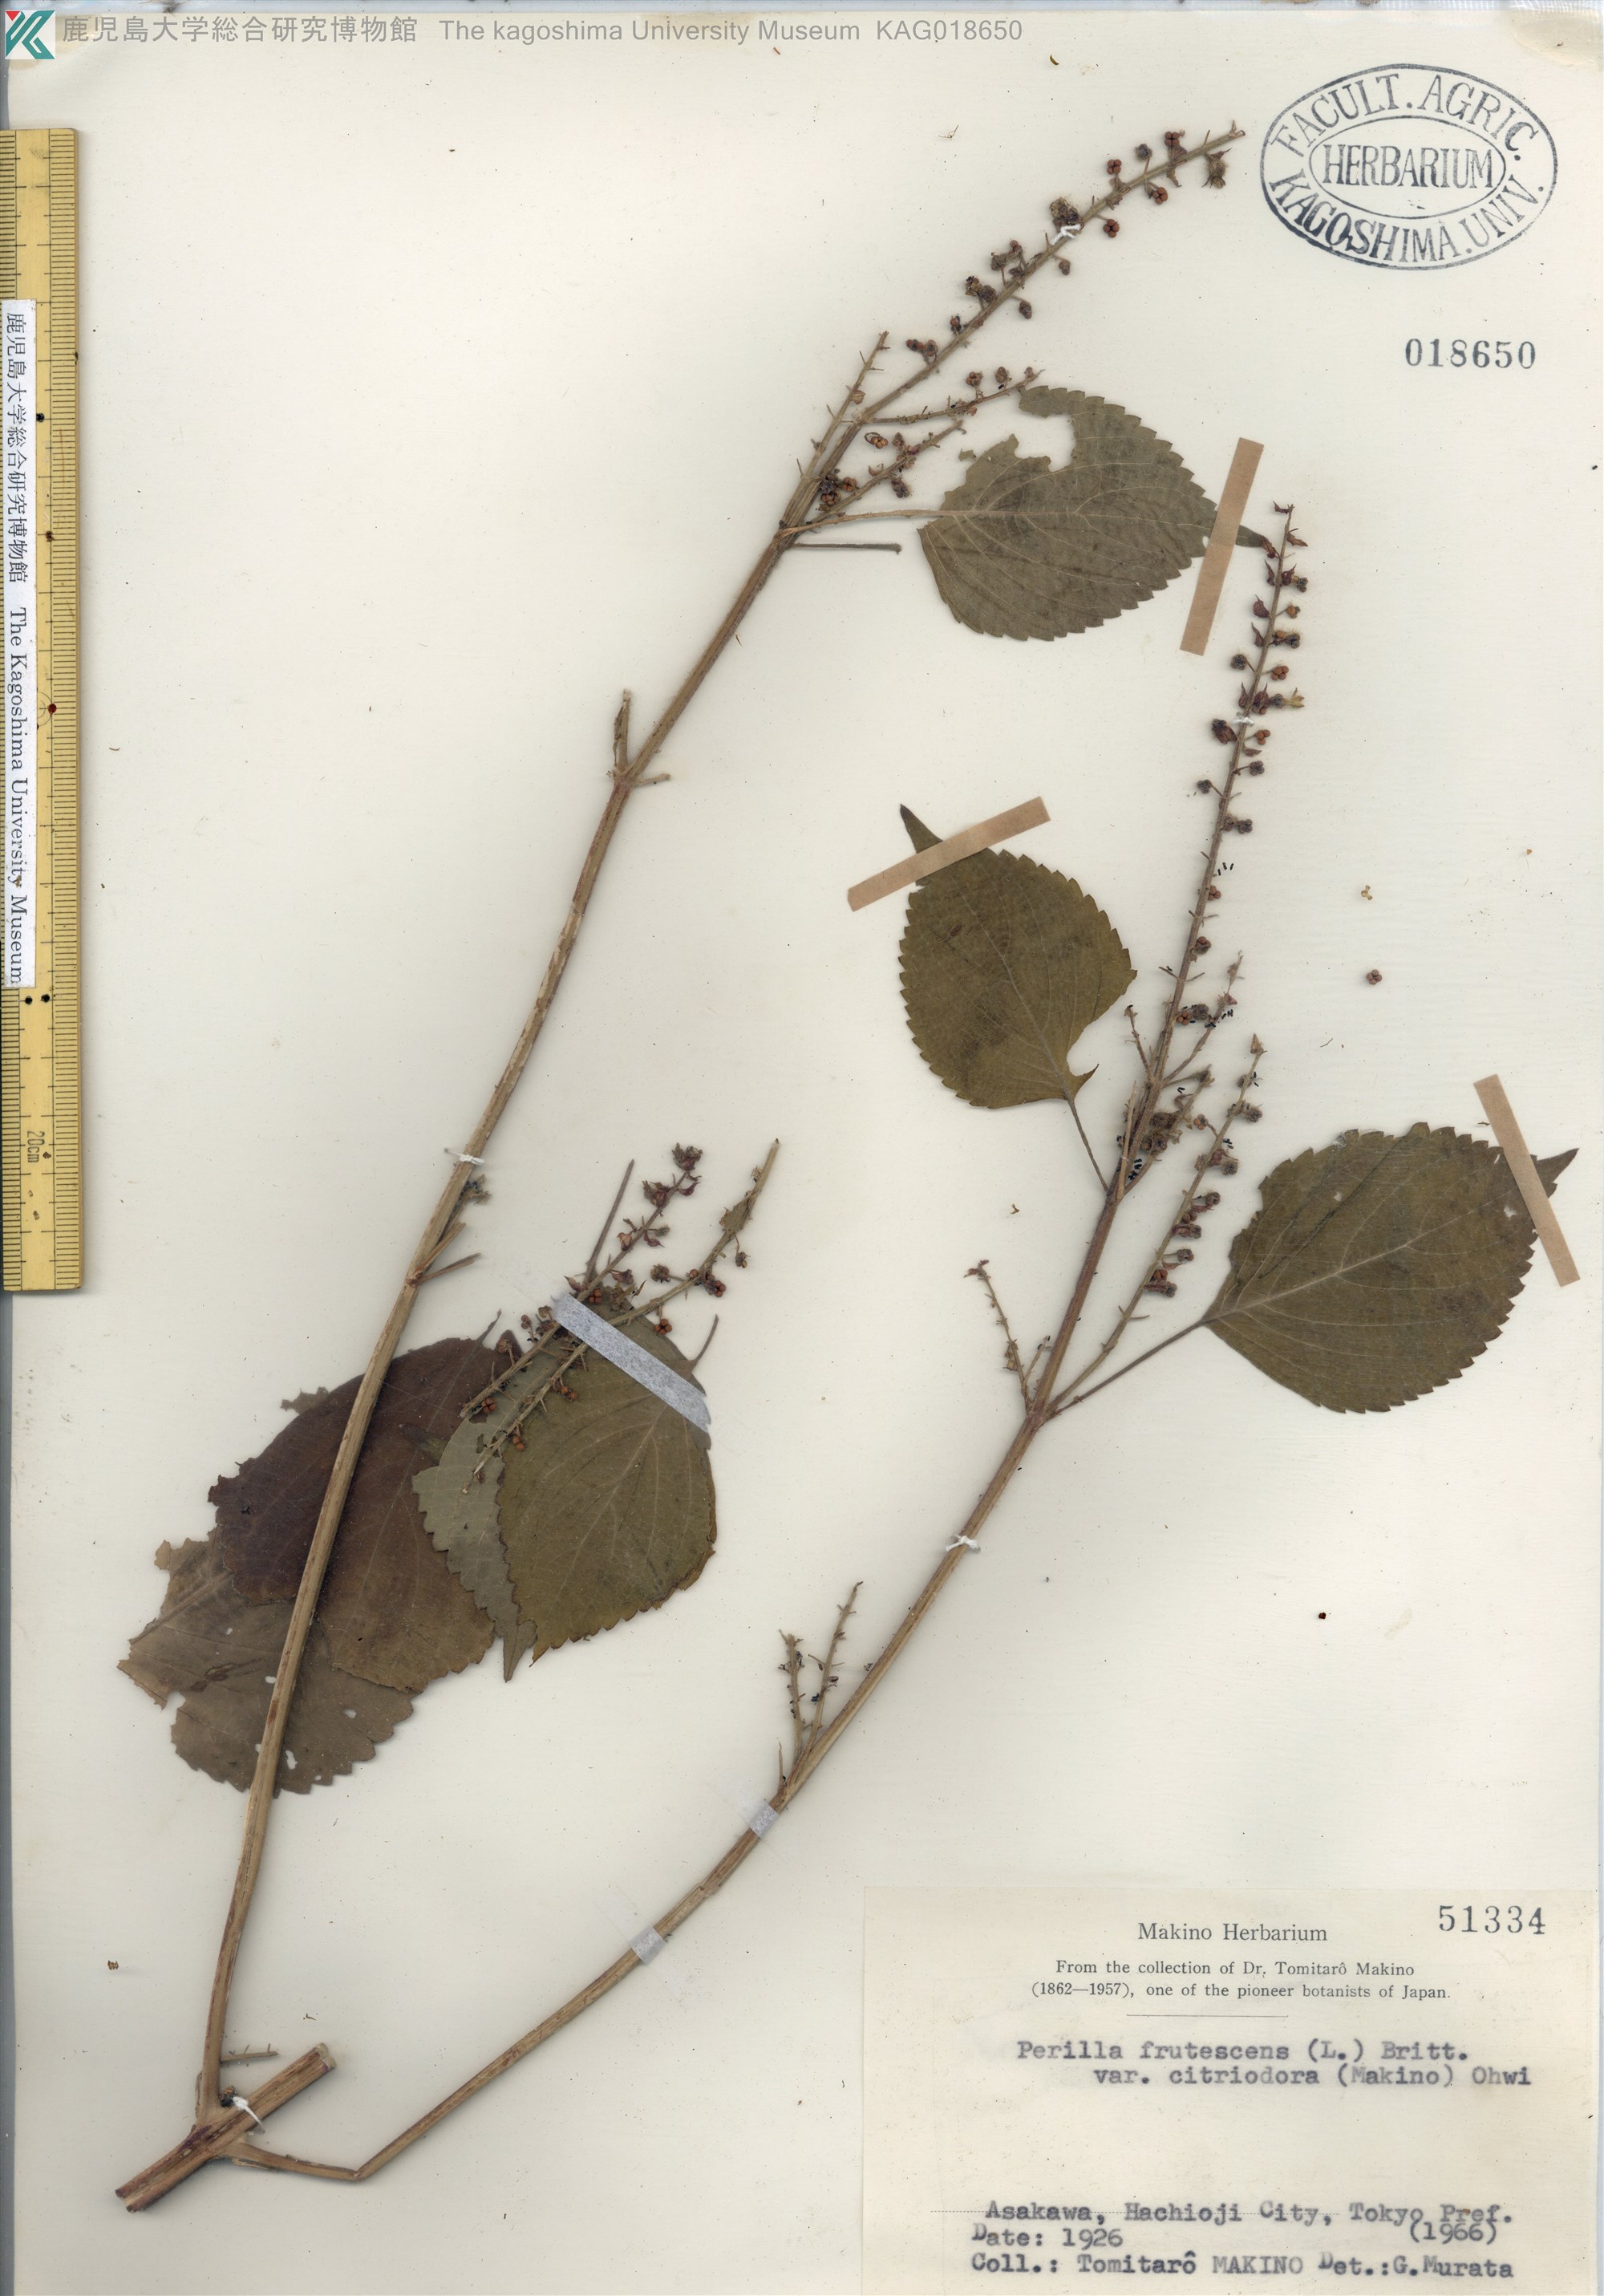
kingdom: Plantae
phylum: Tracheophyta
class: Magnoliopsida
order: Lamiales
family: Lamiaceae
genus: Perilla
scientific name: Perilla frutescens
